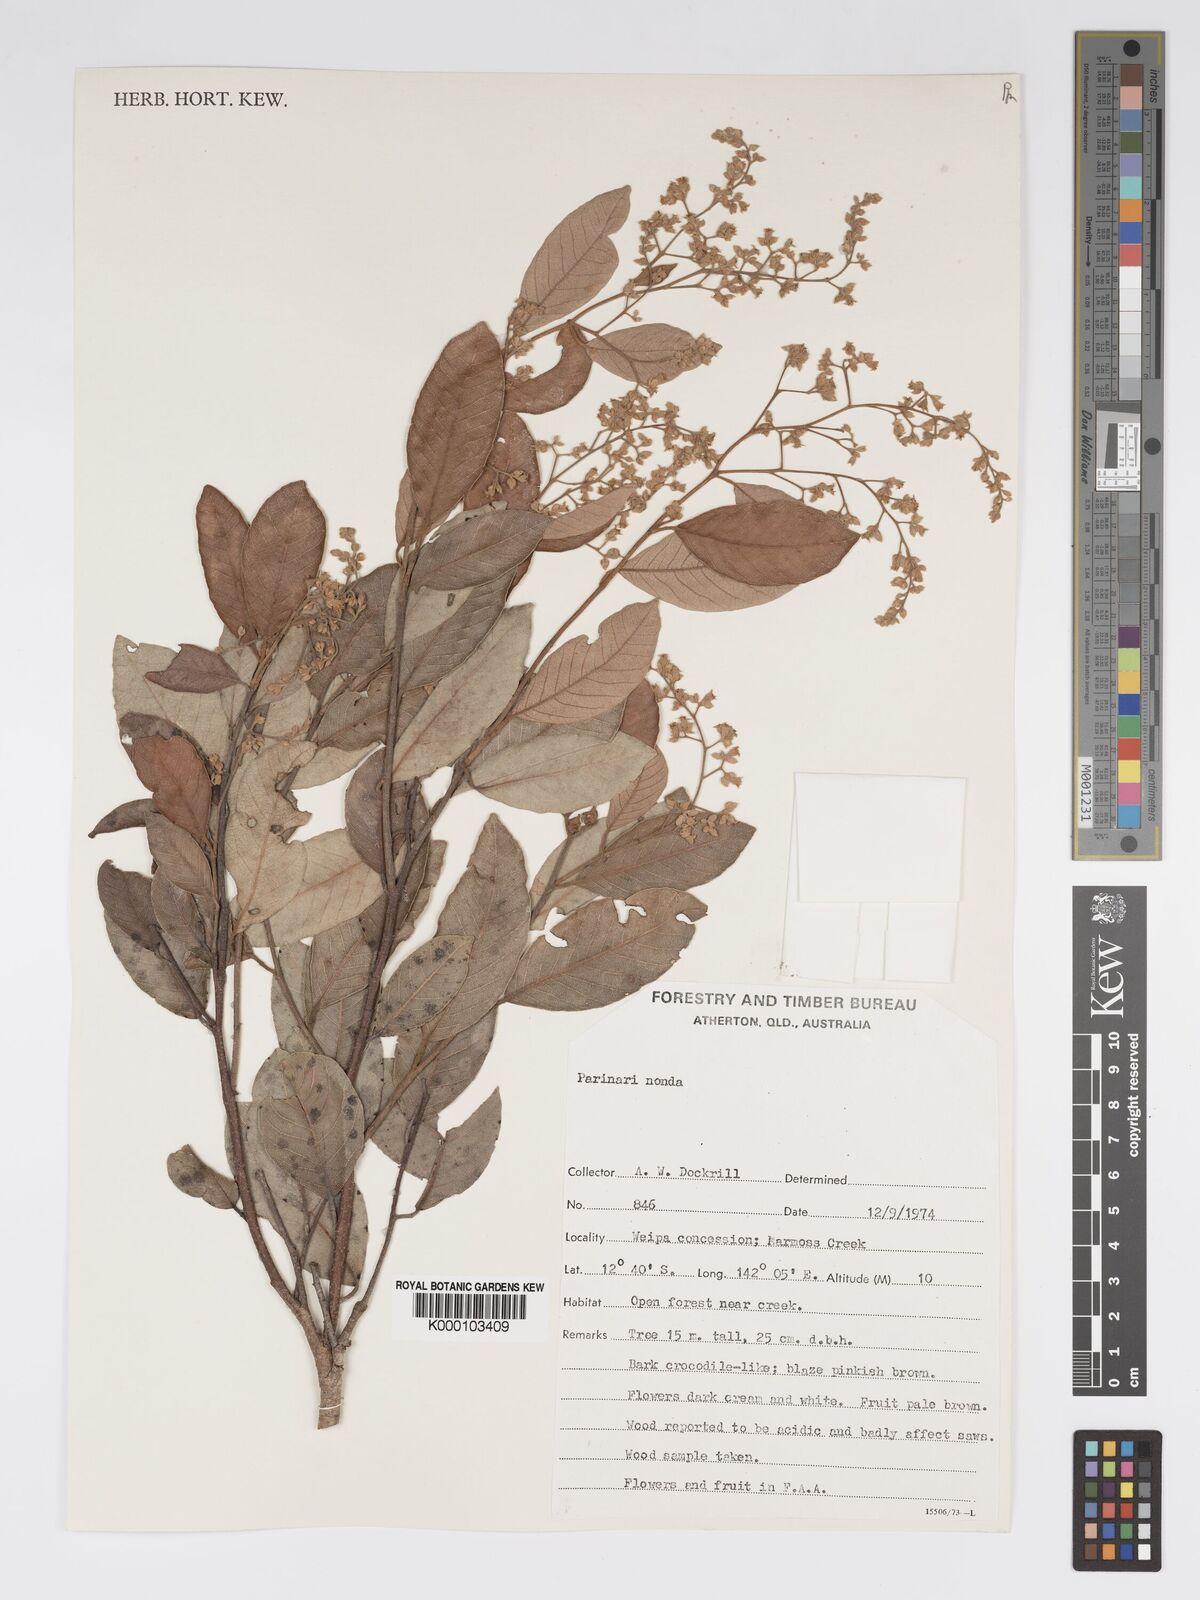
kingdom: Plantae
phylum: Tracheophyta
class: Magnoliopsida
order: Malpighiales
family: Chrysobalanaceae
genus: Parinari
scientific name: Parinari nonda
